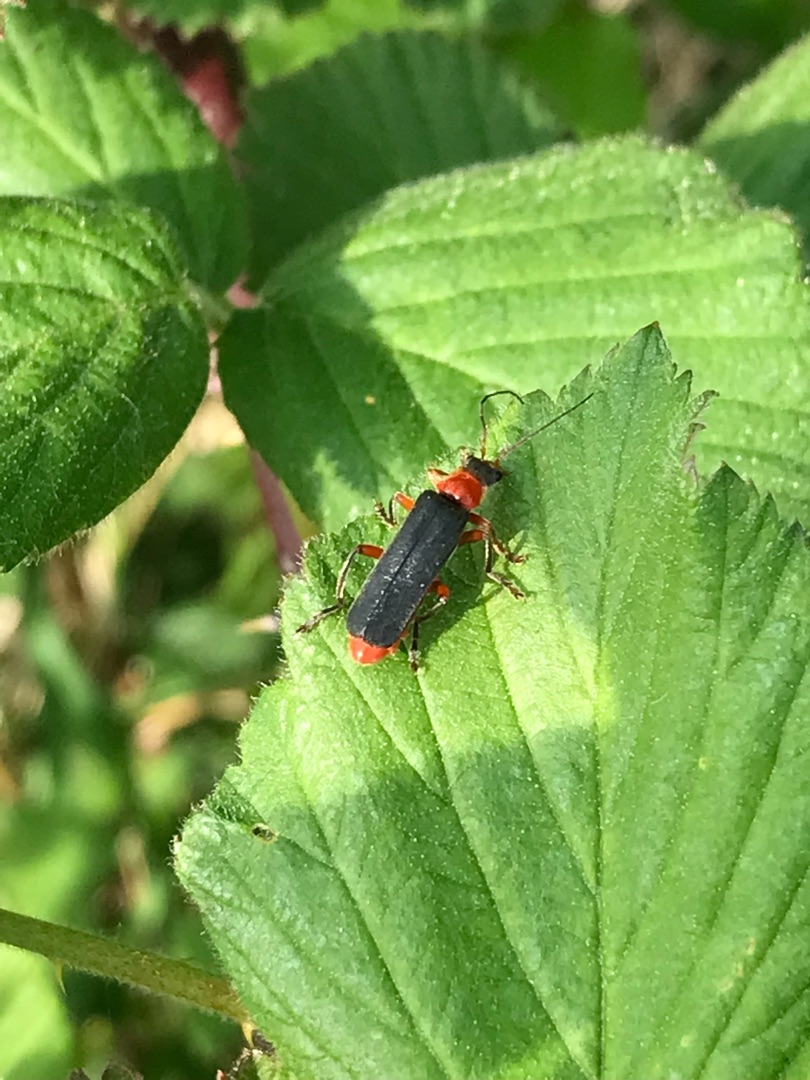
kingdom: Animalia
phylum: Arthropoda
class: Insecta
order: Coleoptera
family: Cantharidae
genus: Cantharis
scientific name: Cantharis pellucida
